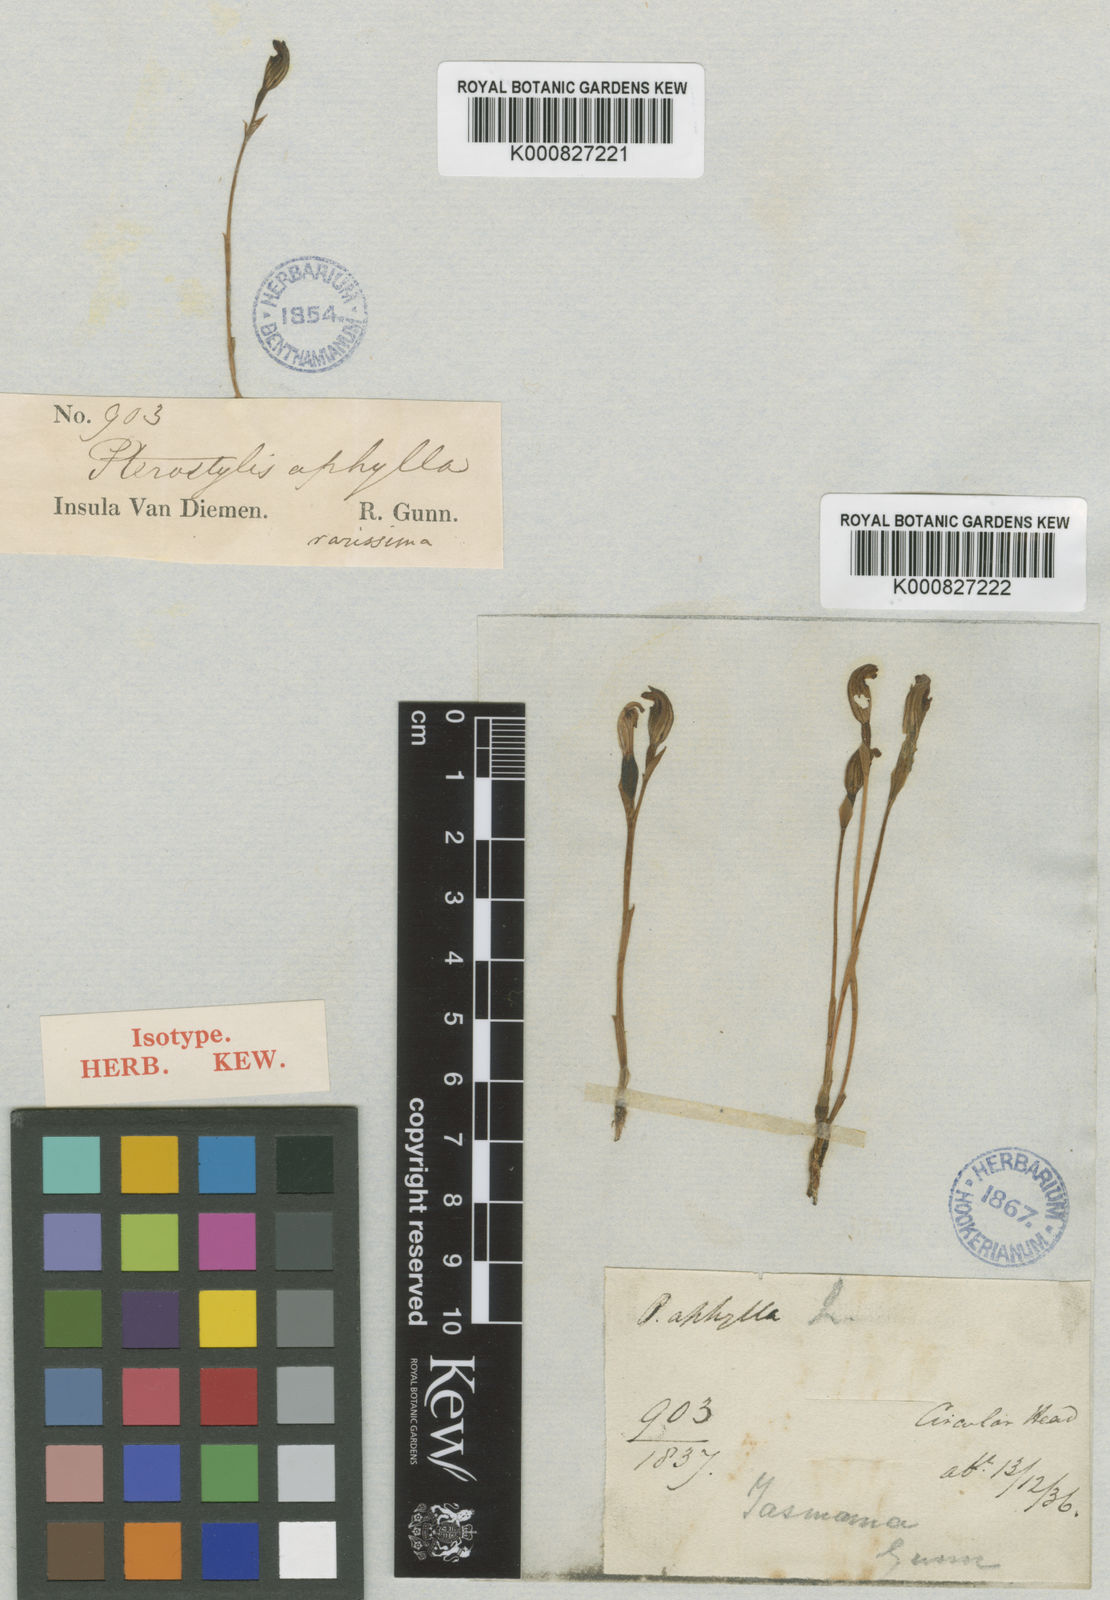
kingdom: Plantae
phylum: Tracheophyta
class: Liliopsida
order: Asparagales
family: Orchidaceae
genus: Pterostylis
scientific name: Pterostylis aphylla
